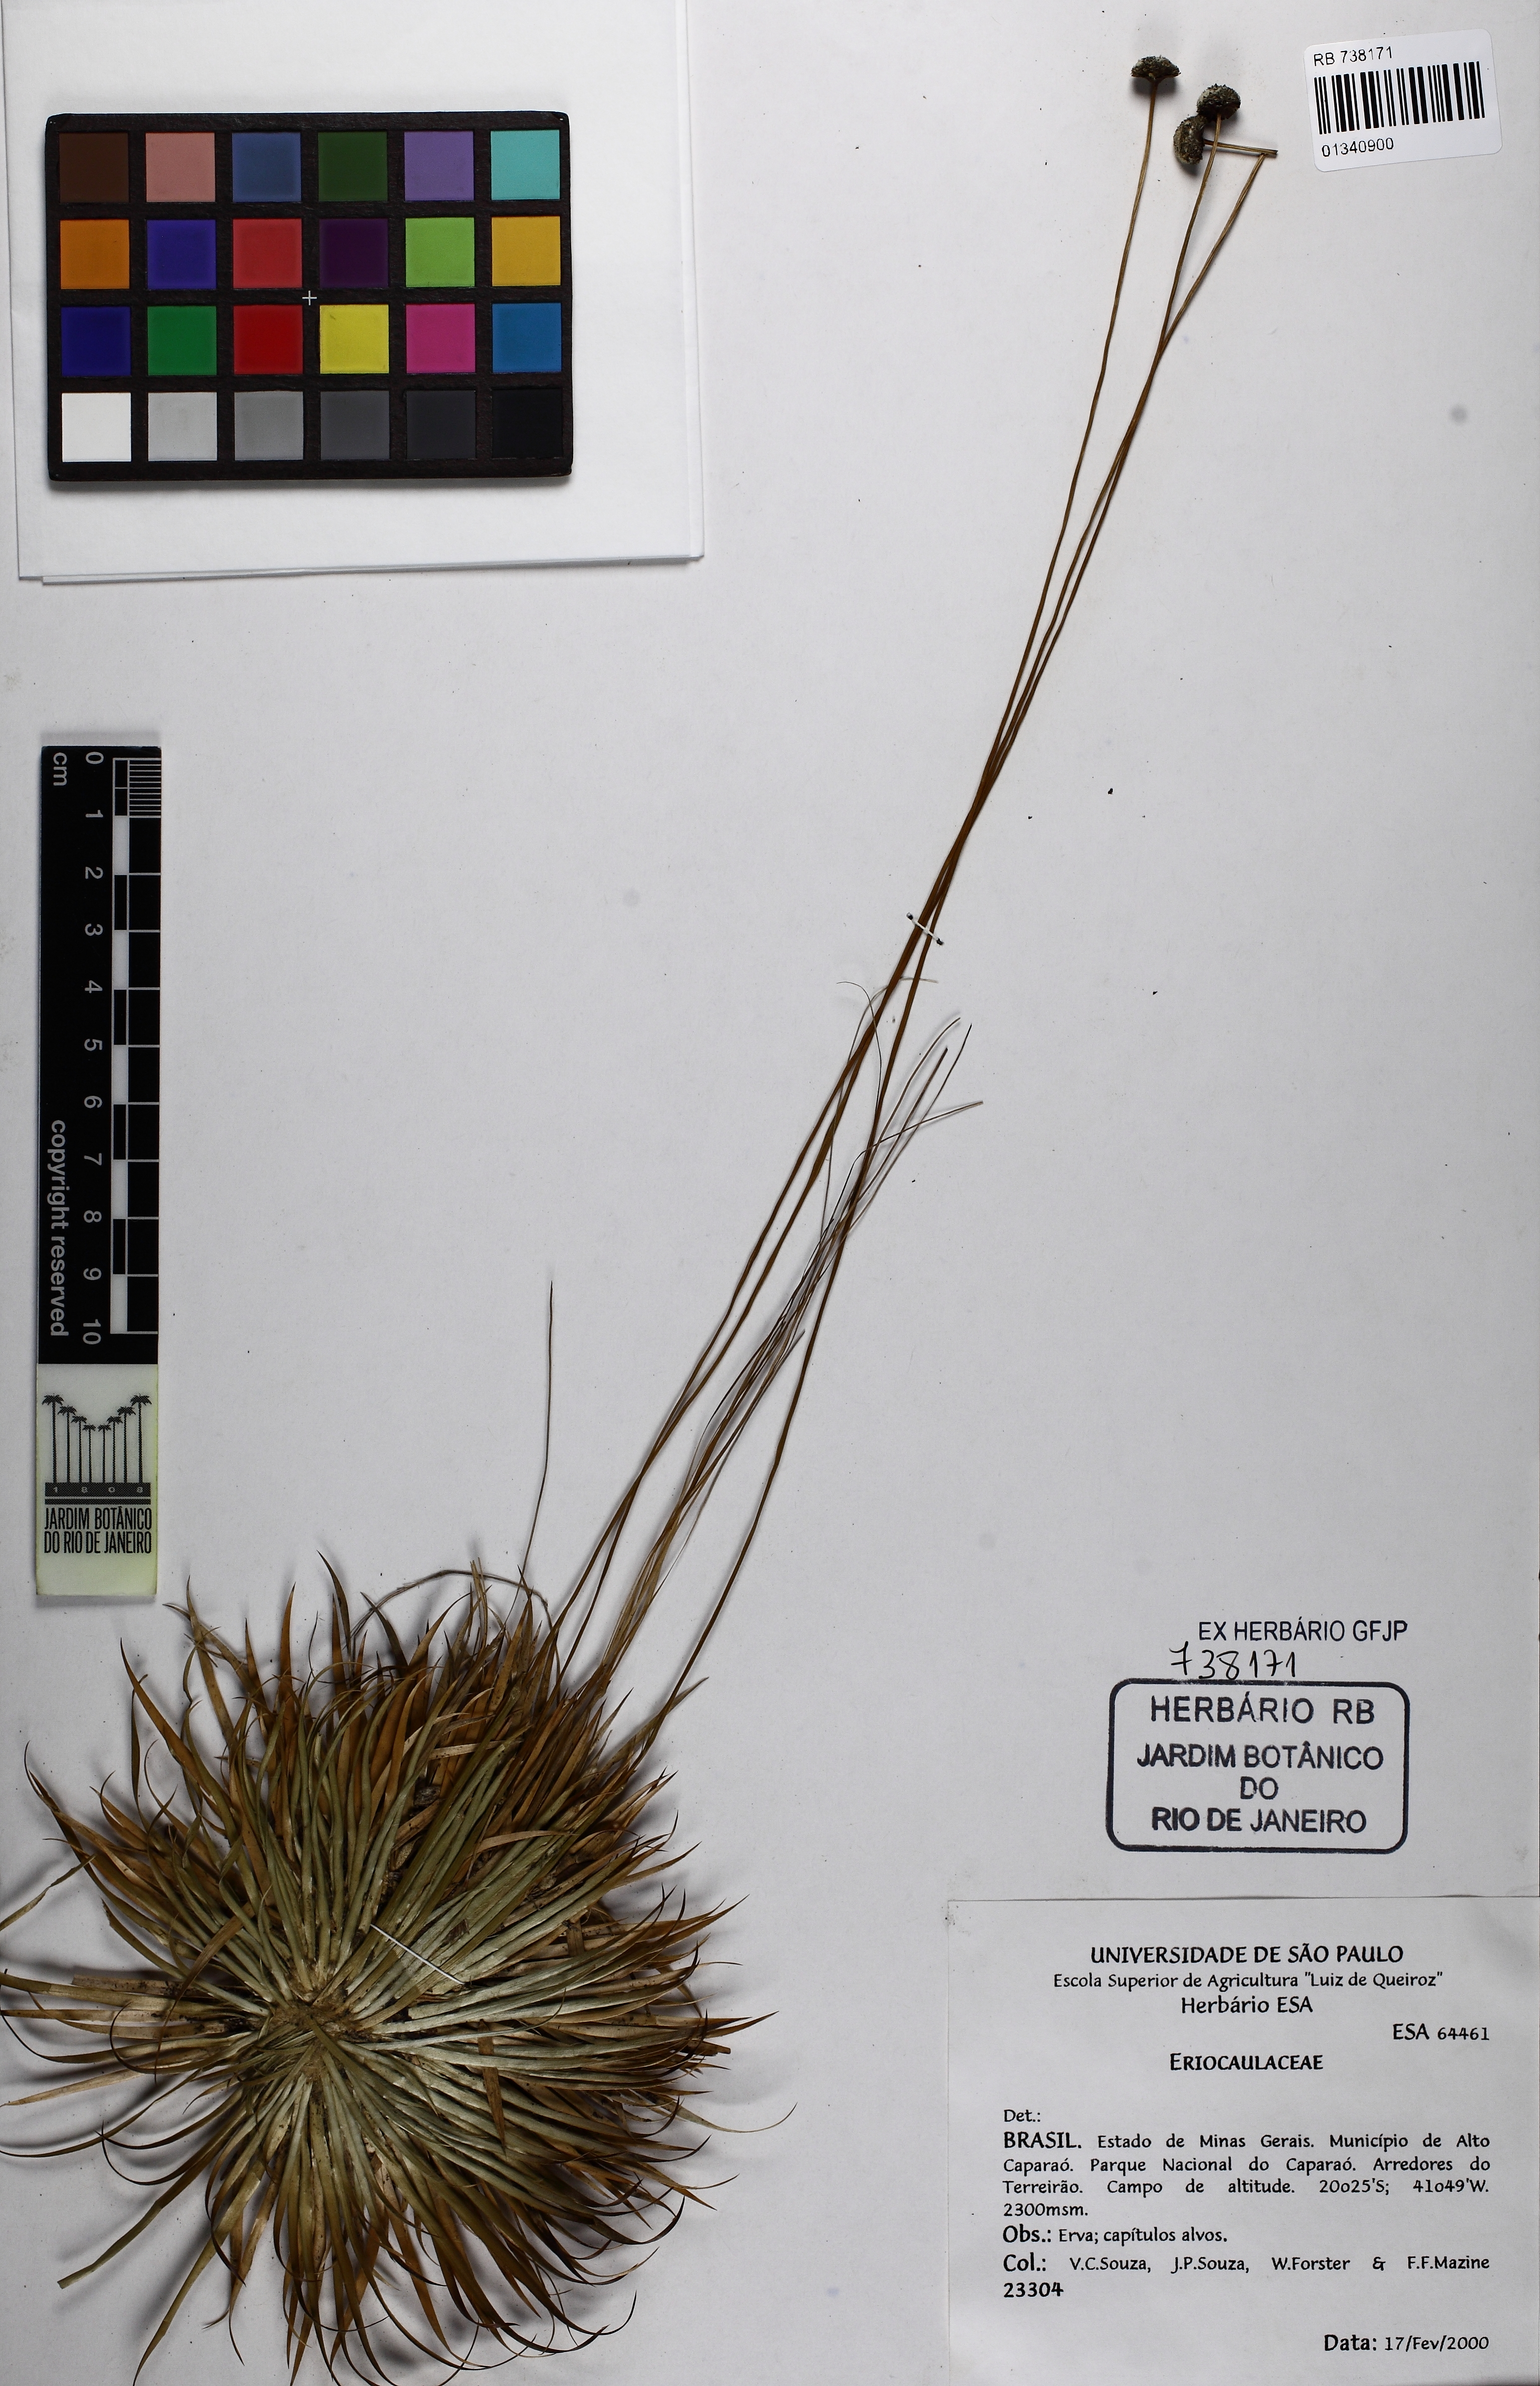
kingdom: Plantae
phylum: Tracheophyta
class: Liliopsida
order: Poales
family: Eriocaulaceae
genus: Paepalanthus
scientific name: Paepalanthus caparoensis
